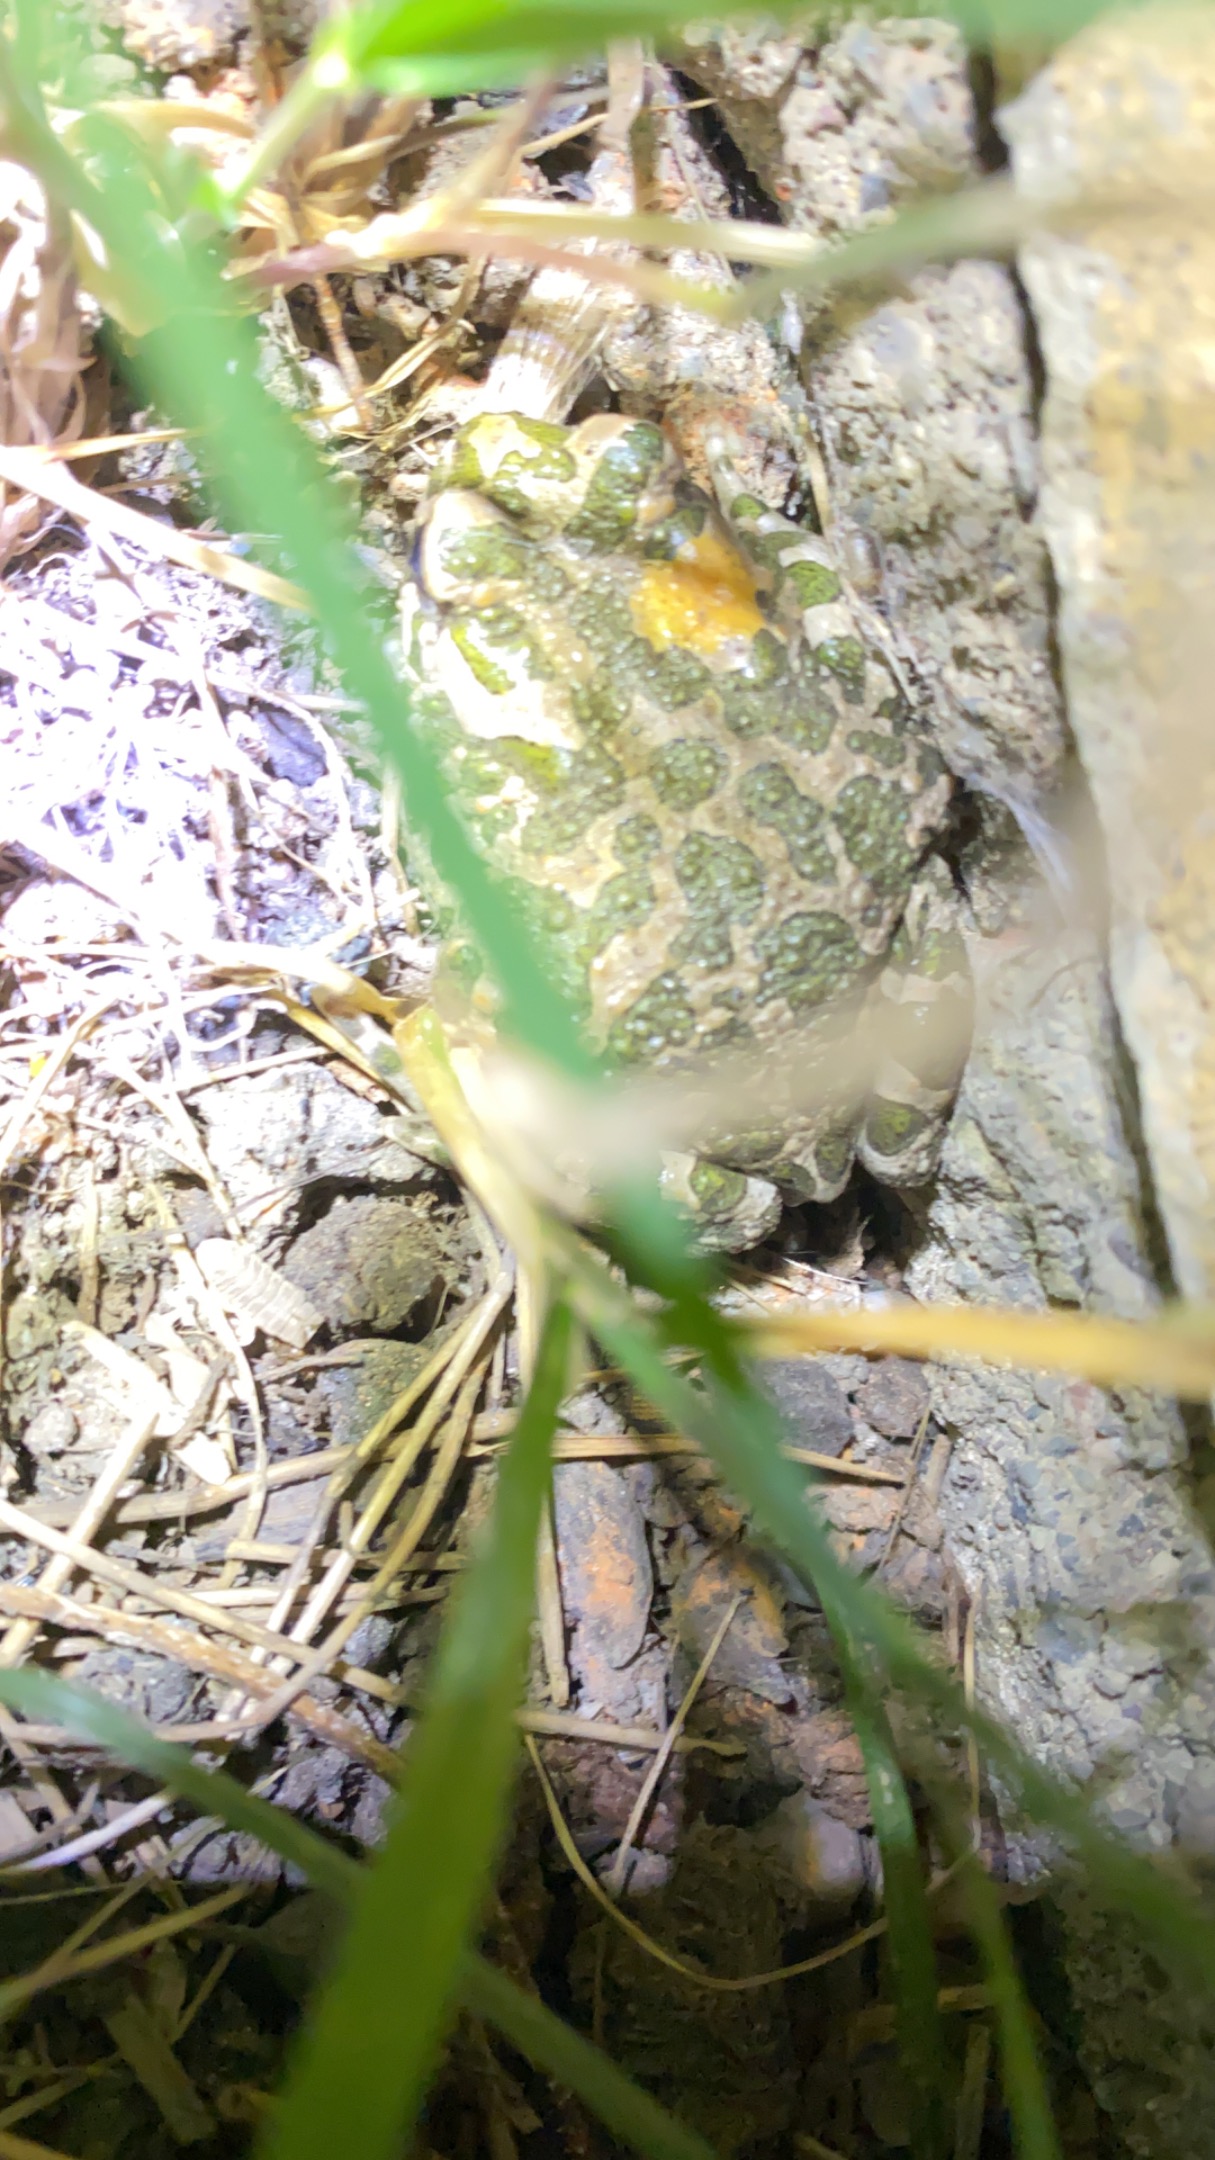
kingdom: Animalia
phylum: Chordata
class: Amphibia
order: Anura
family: Bufonidae
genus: Bufotes
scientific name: Bufotes viridis
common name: Grønbroget tudse
